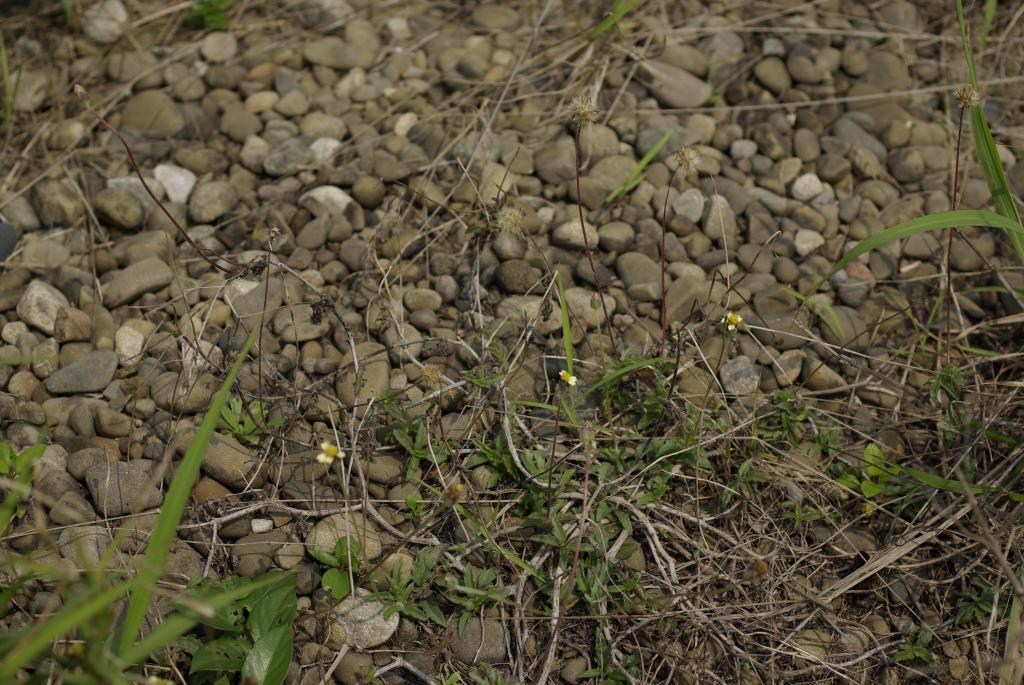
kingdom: Plantae
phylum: Tracheophyta
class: Magnoliopsida
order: Asterales
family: Asteraceae
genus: Tridax
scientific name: Tridax procumbens
